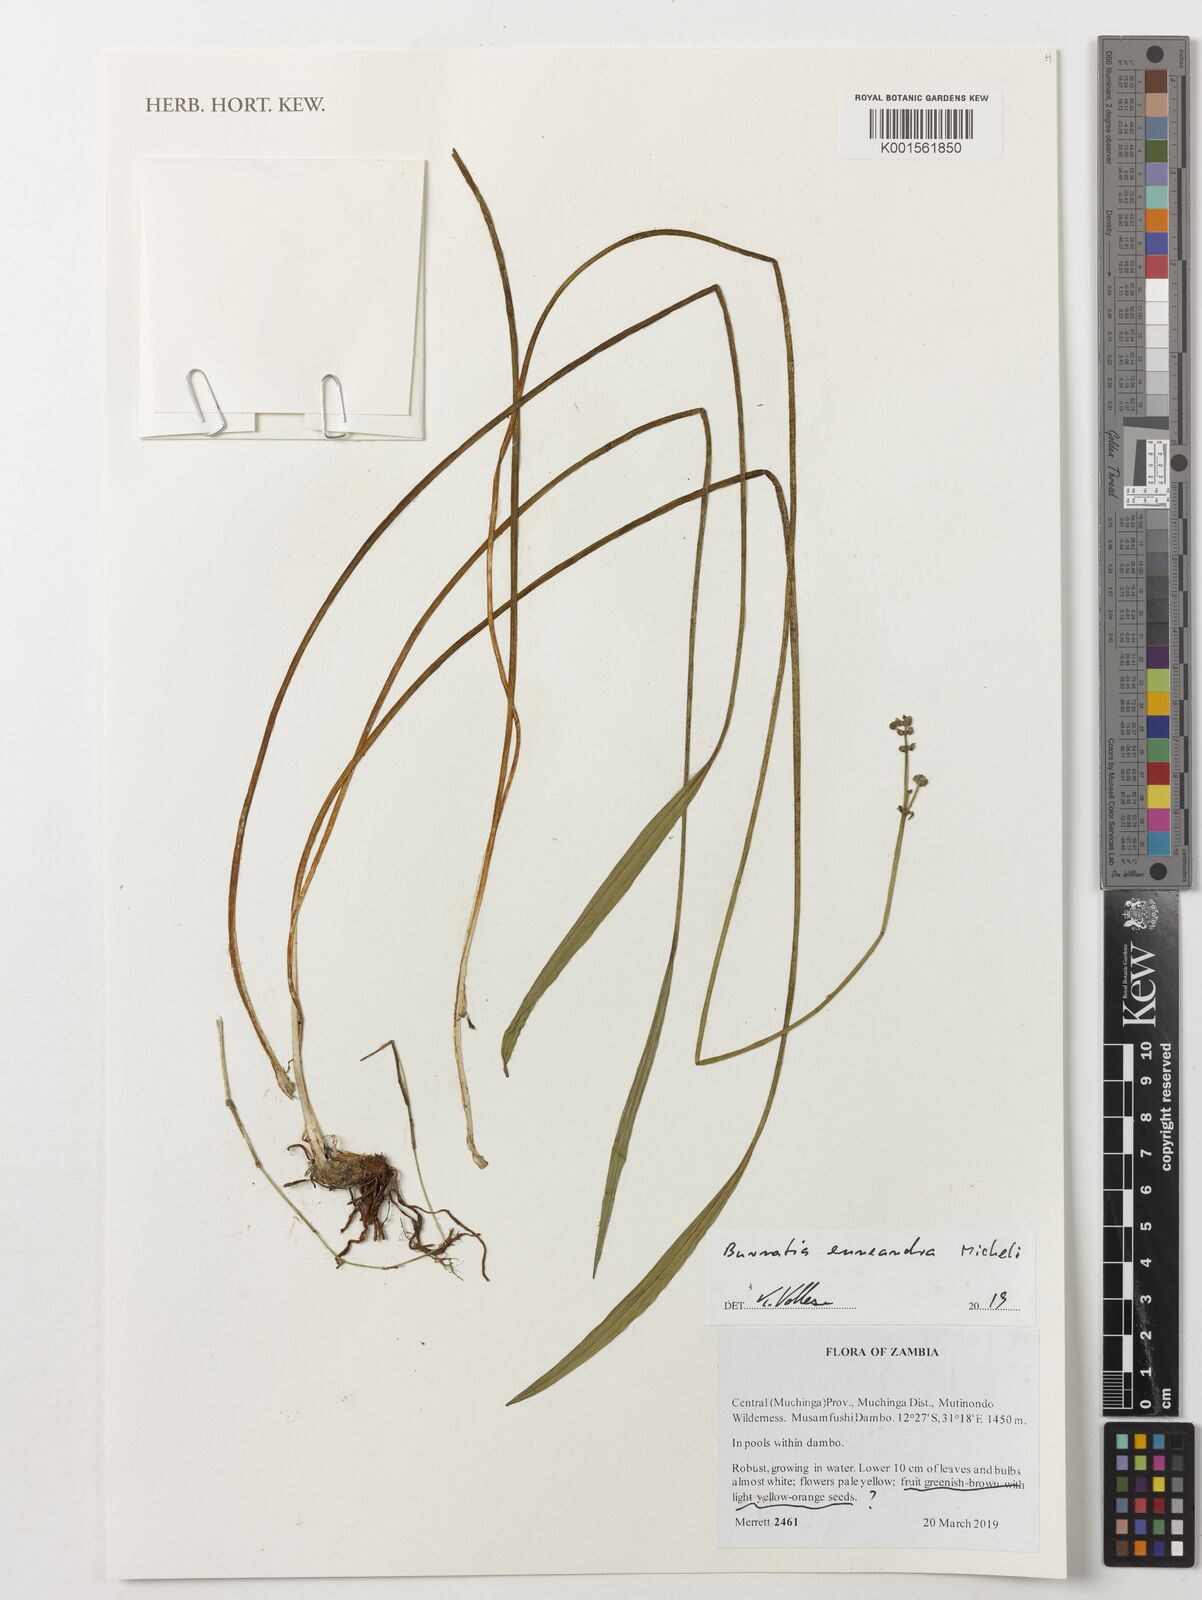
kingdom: Plantae
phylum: Tracheophyta
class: Liliopsida
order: Alismatales
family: Alismataceae
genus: Burnatia
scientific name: Burnatia enneandra
